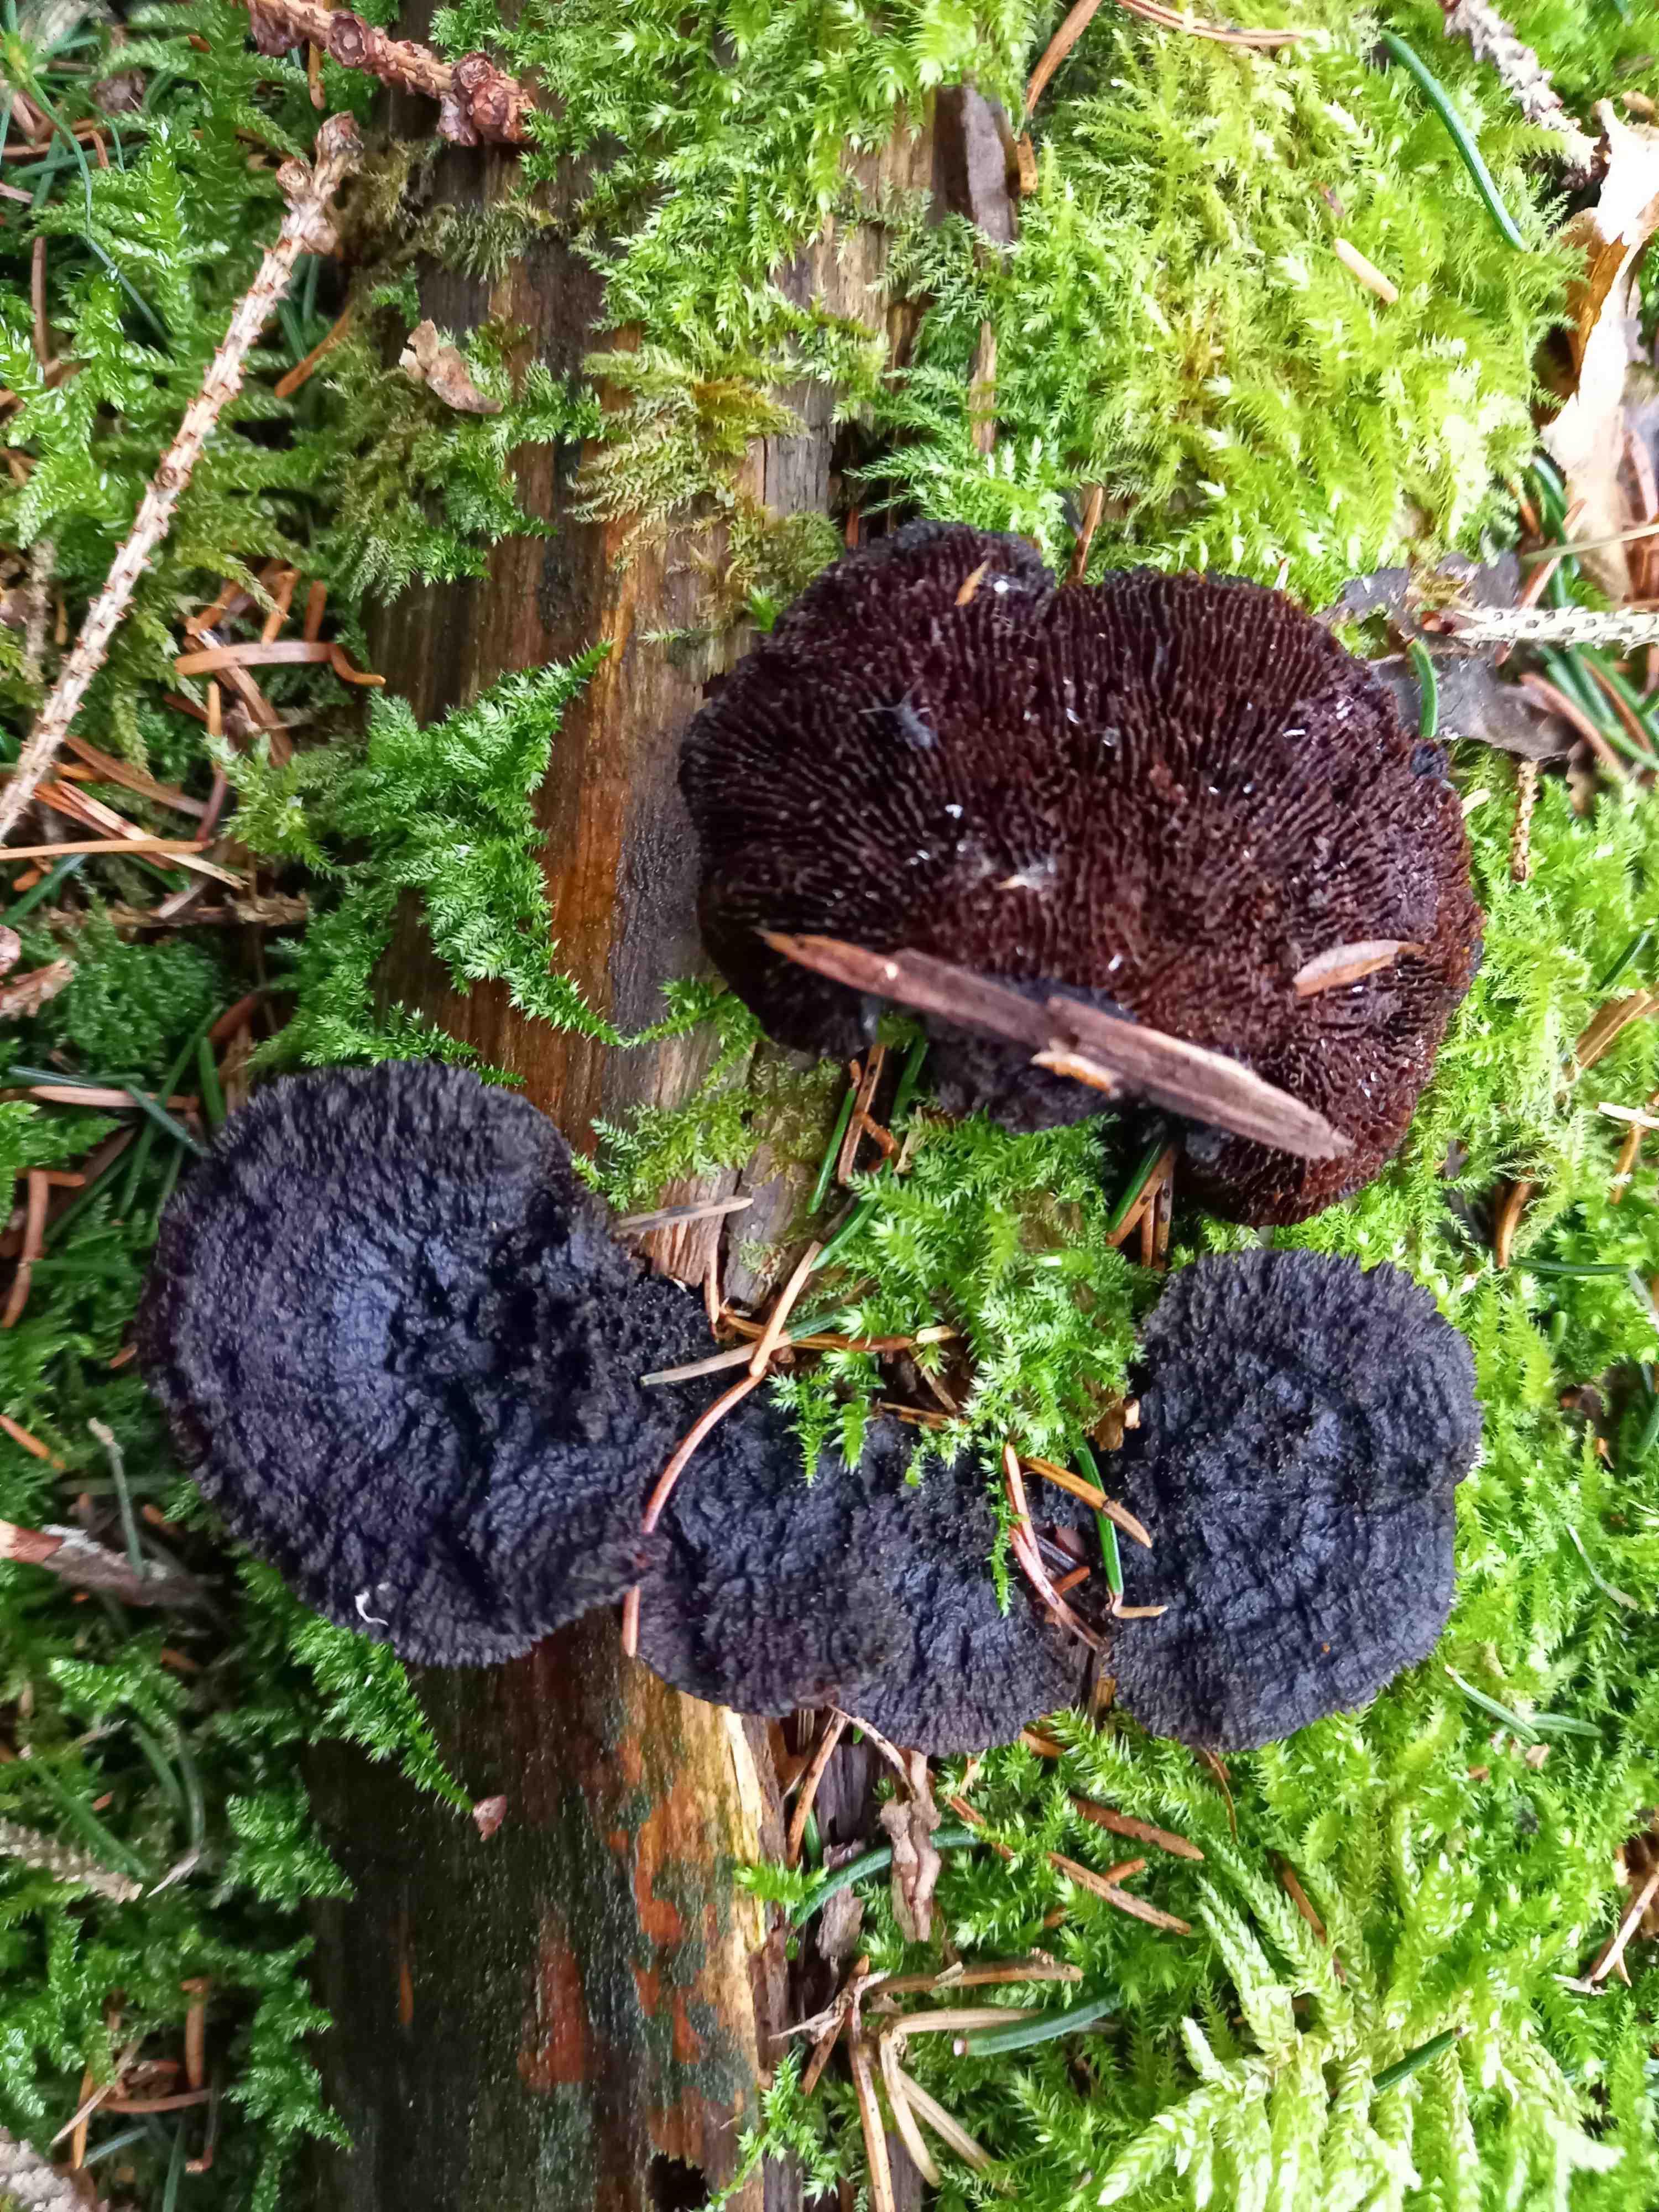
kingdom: Fungi
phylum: Basidiomycota
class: Agaricomycetes
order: Gloeophyllales
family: Gloeophyllaceae
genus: Gloeophyllum
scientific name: Gloeophyllum sepiarium
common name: fyrre-korkhat
